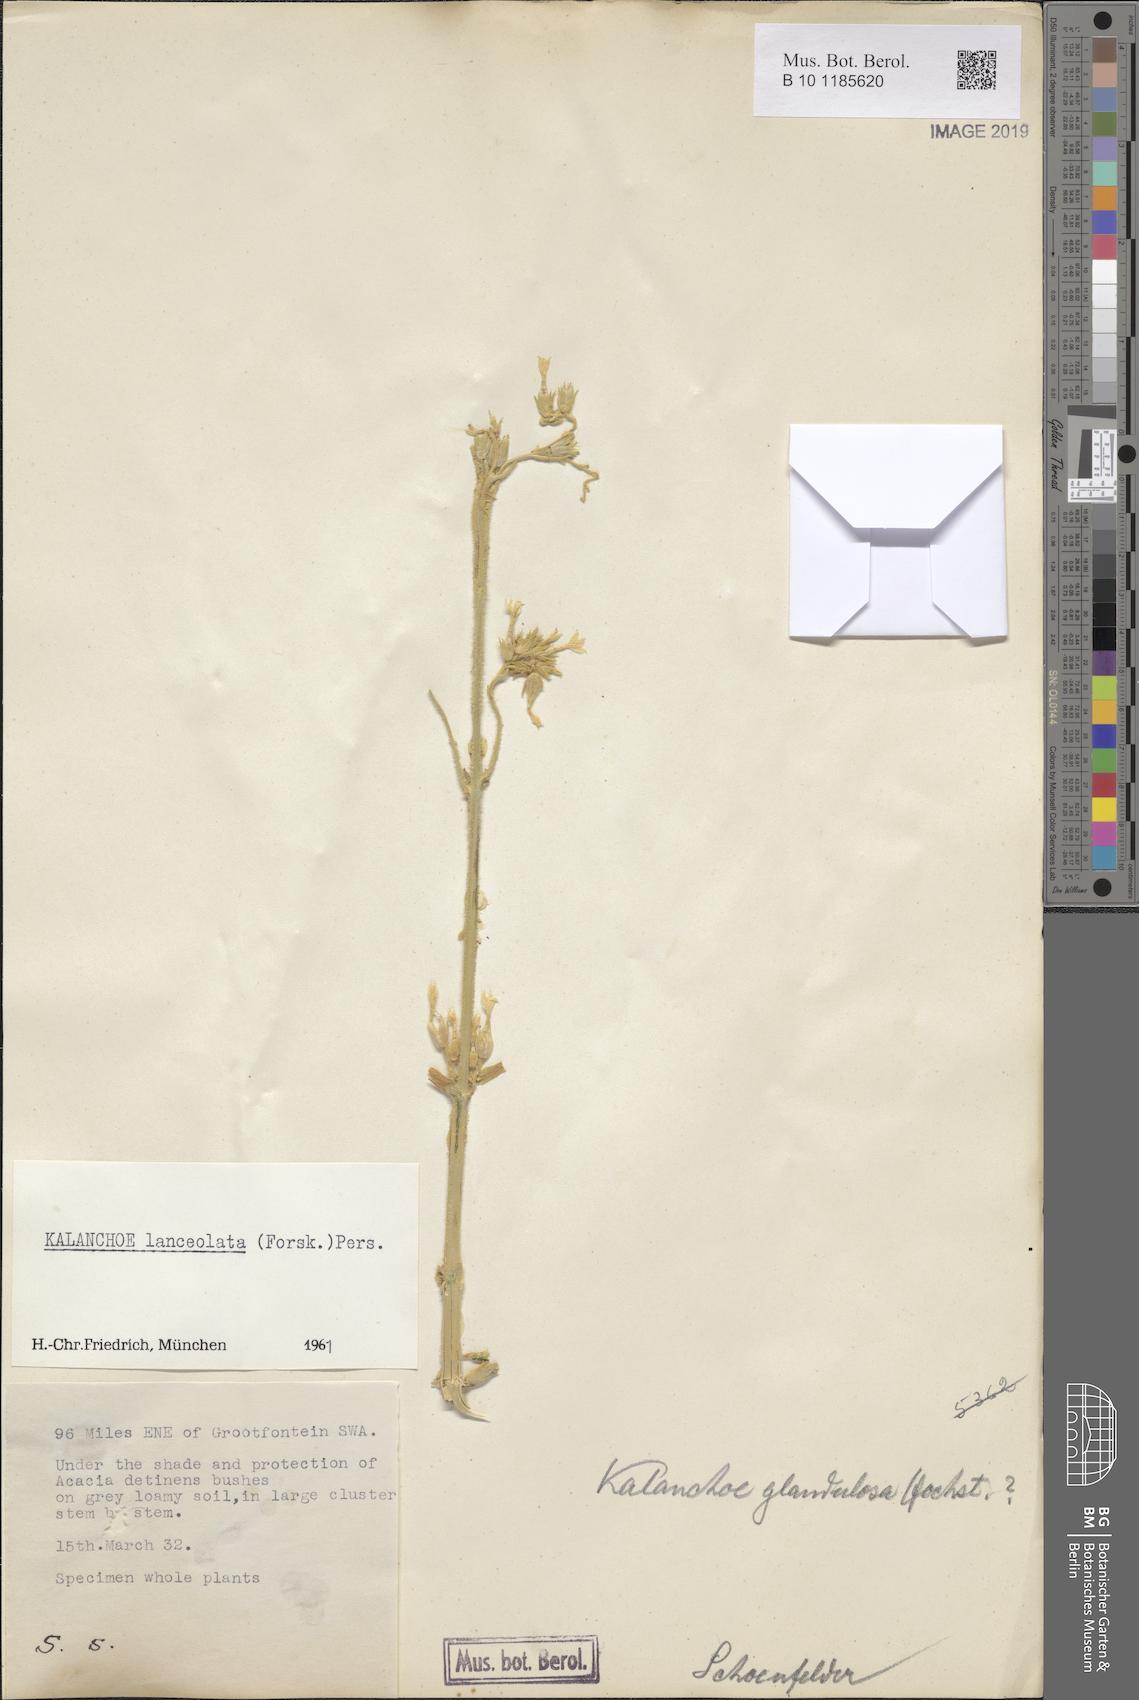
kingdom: Plantae
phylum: Tracheophyta
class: Magnoliopsida
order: Saxifragales
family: Crassulaceae
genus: Kalanchoe
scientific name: Kalanchoe lanceolata
